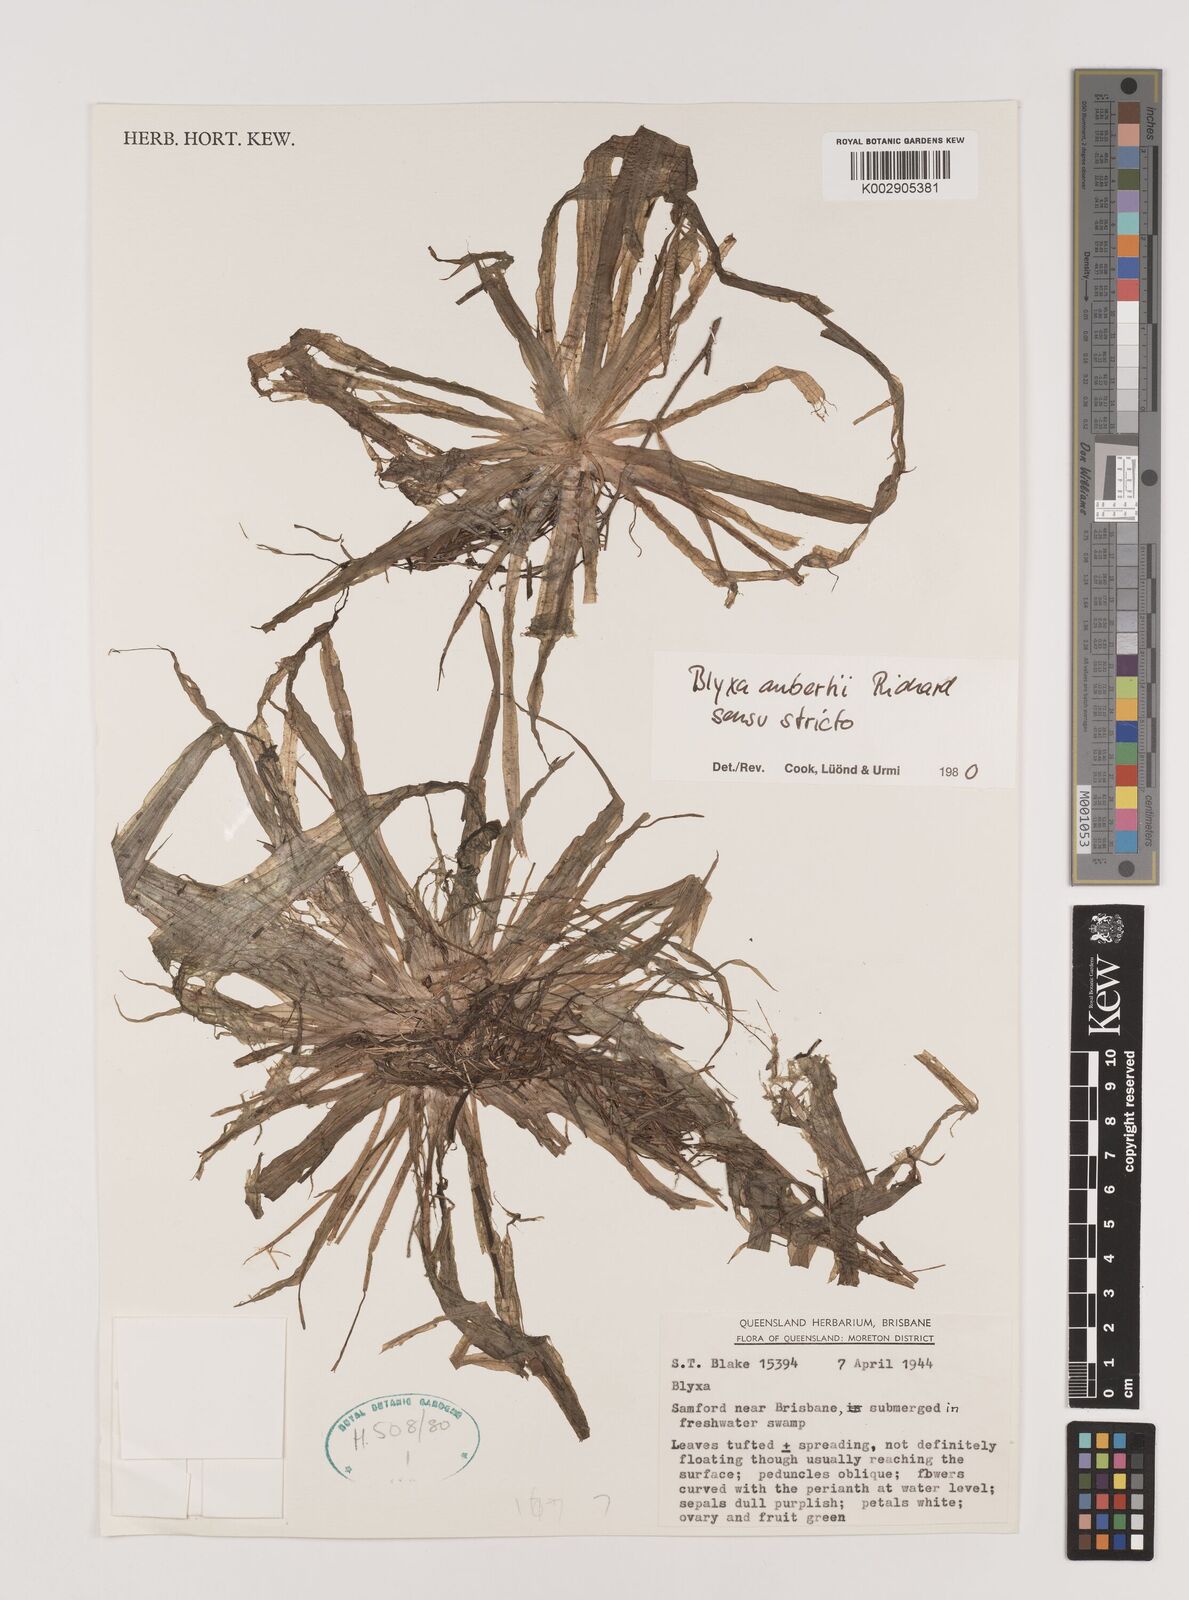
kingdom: Plantae
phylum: Tracheophyta
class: Liliopsida
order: Alismatales
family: Hydrocharitaceae
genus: Blyxa
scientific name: Blyxa aubertii
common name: Roundfruit blyxa
